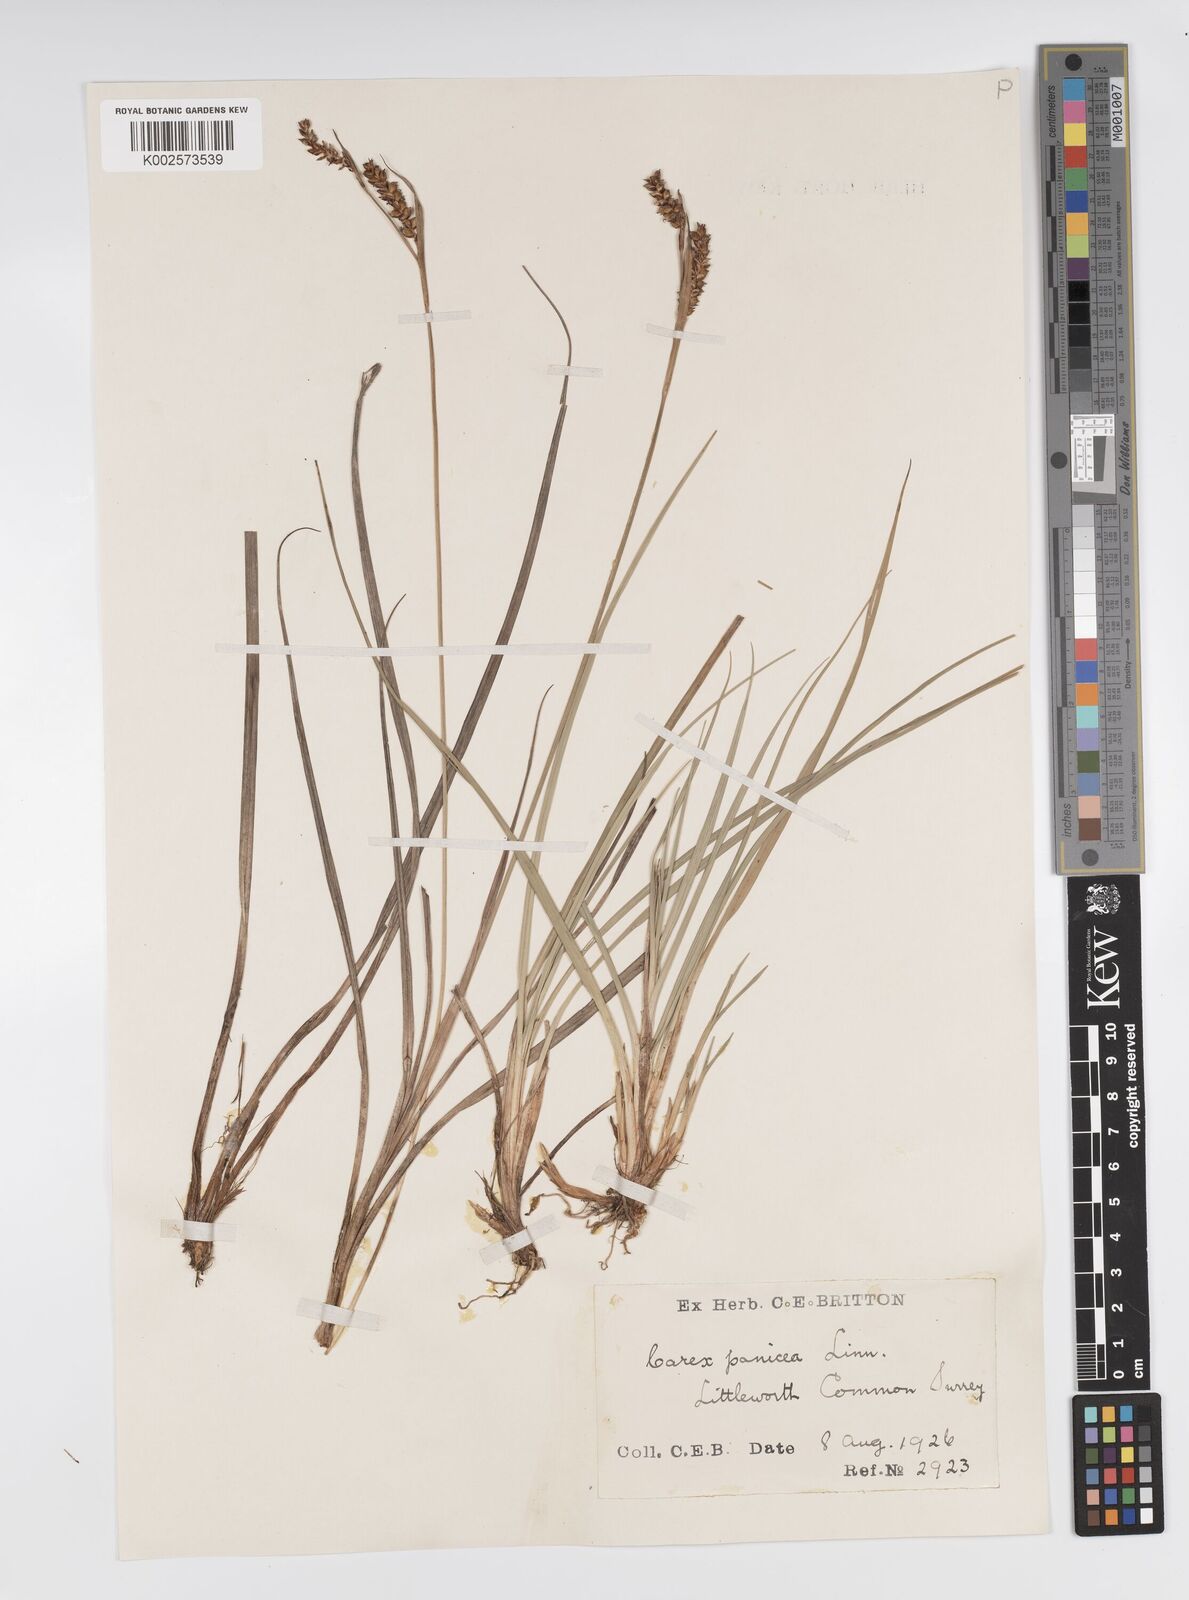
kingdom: Plantae
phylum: Tracheophyta
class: Liliopsida
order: Poales
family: Cyperaceae
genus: Carex
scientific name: Carex panicea
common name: Carnation sedge
